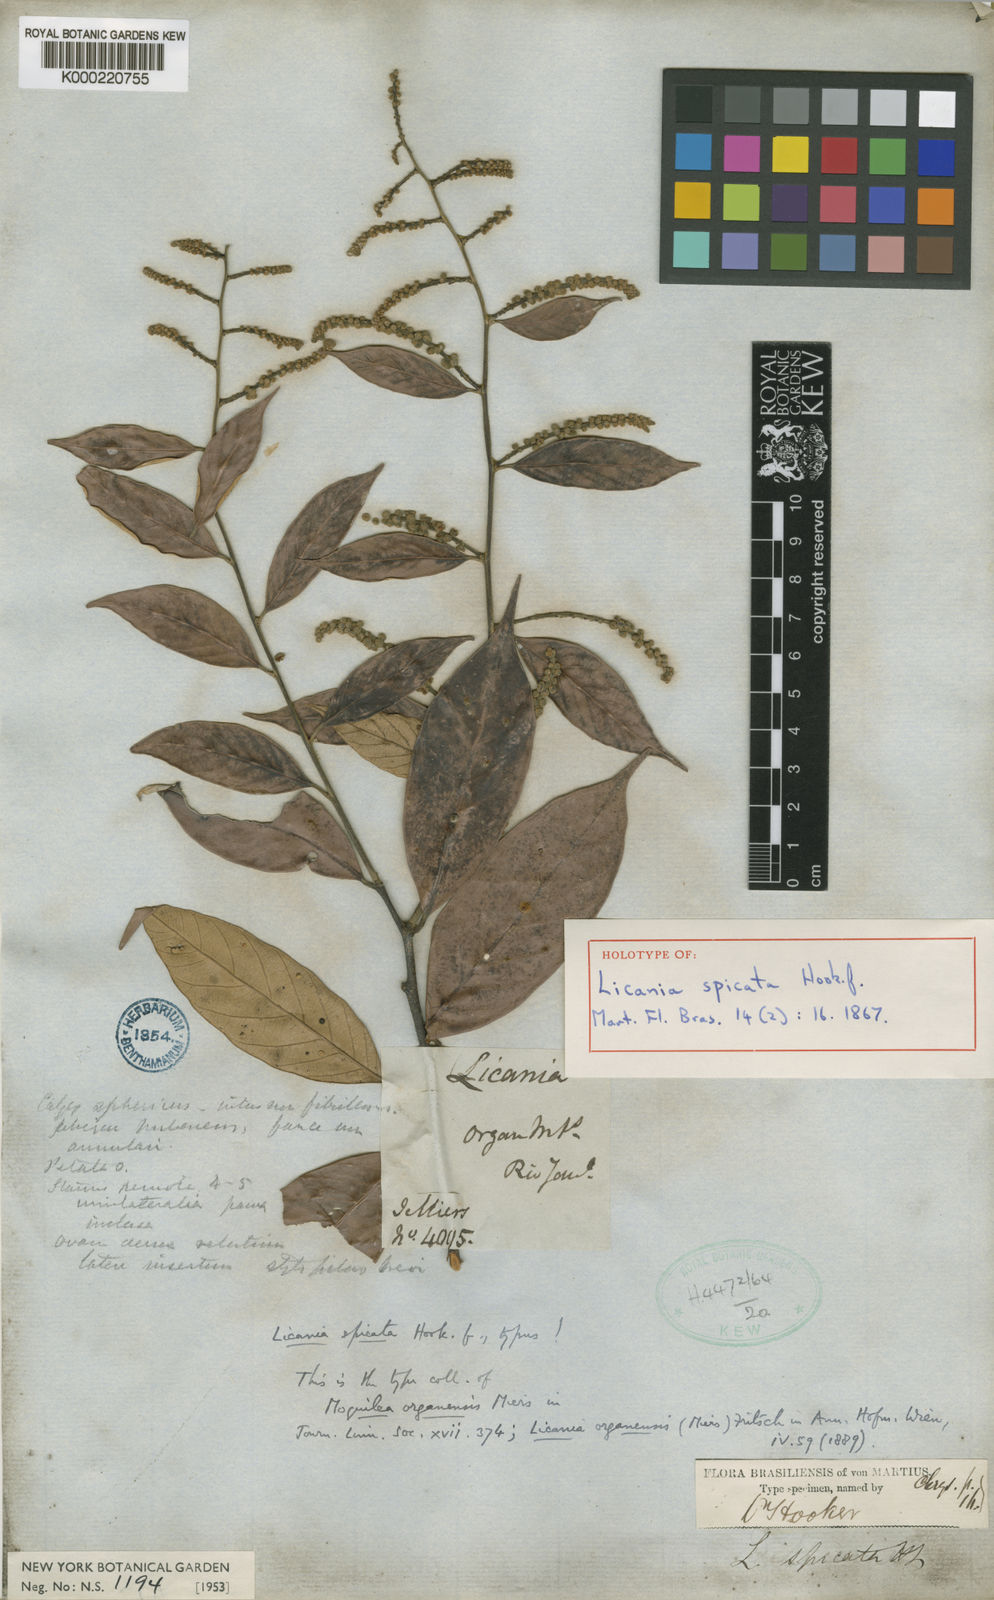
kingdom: Plantae
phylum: Tracheophyta
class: Magnoliopsida
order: Malpighiales
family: Chrysobalanaceae
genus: Licania
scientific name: Licania spicata
